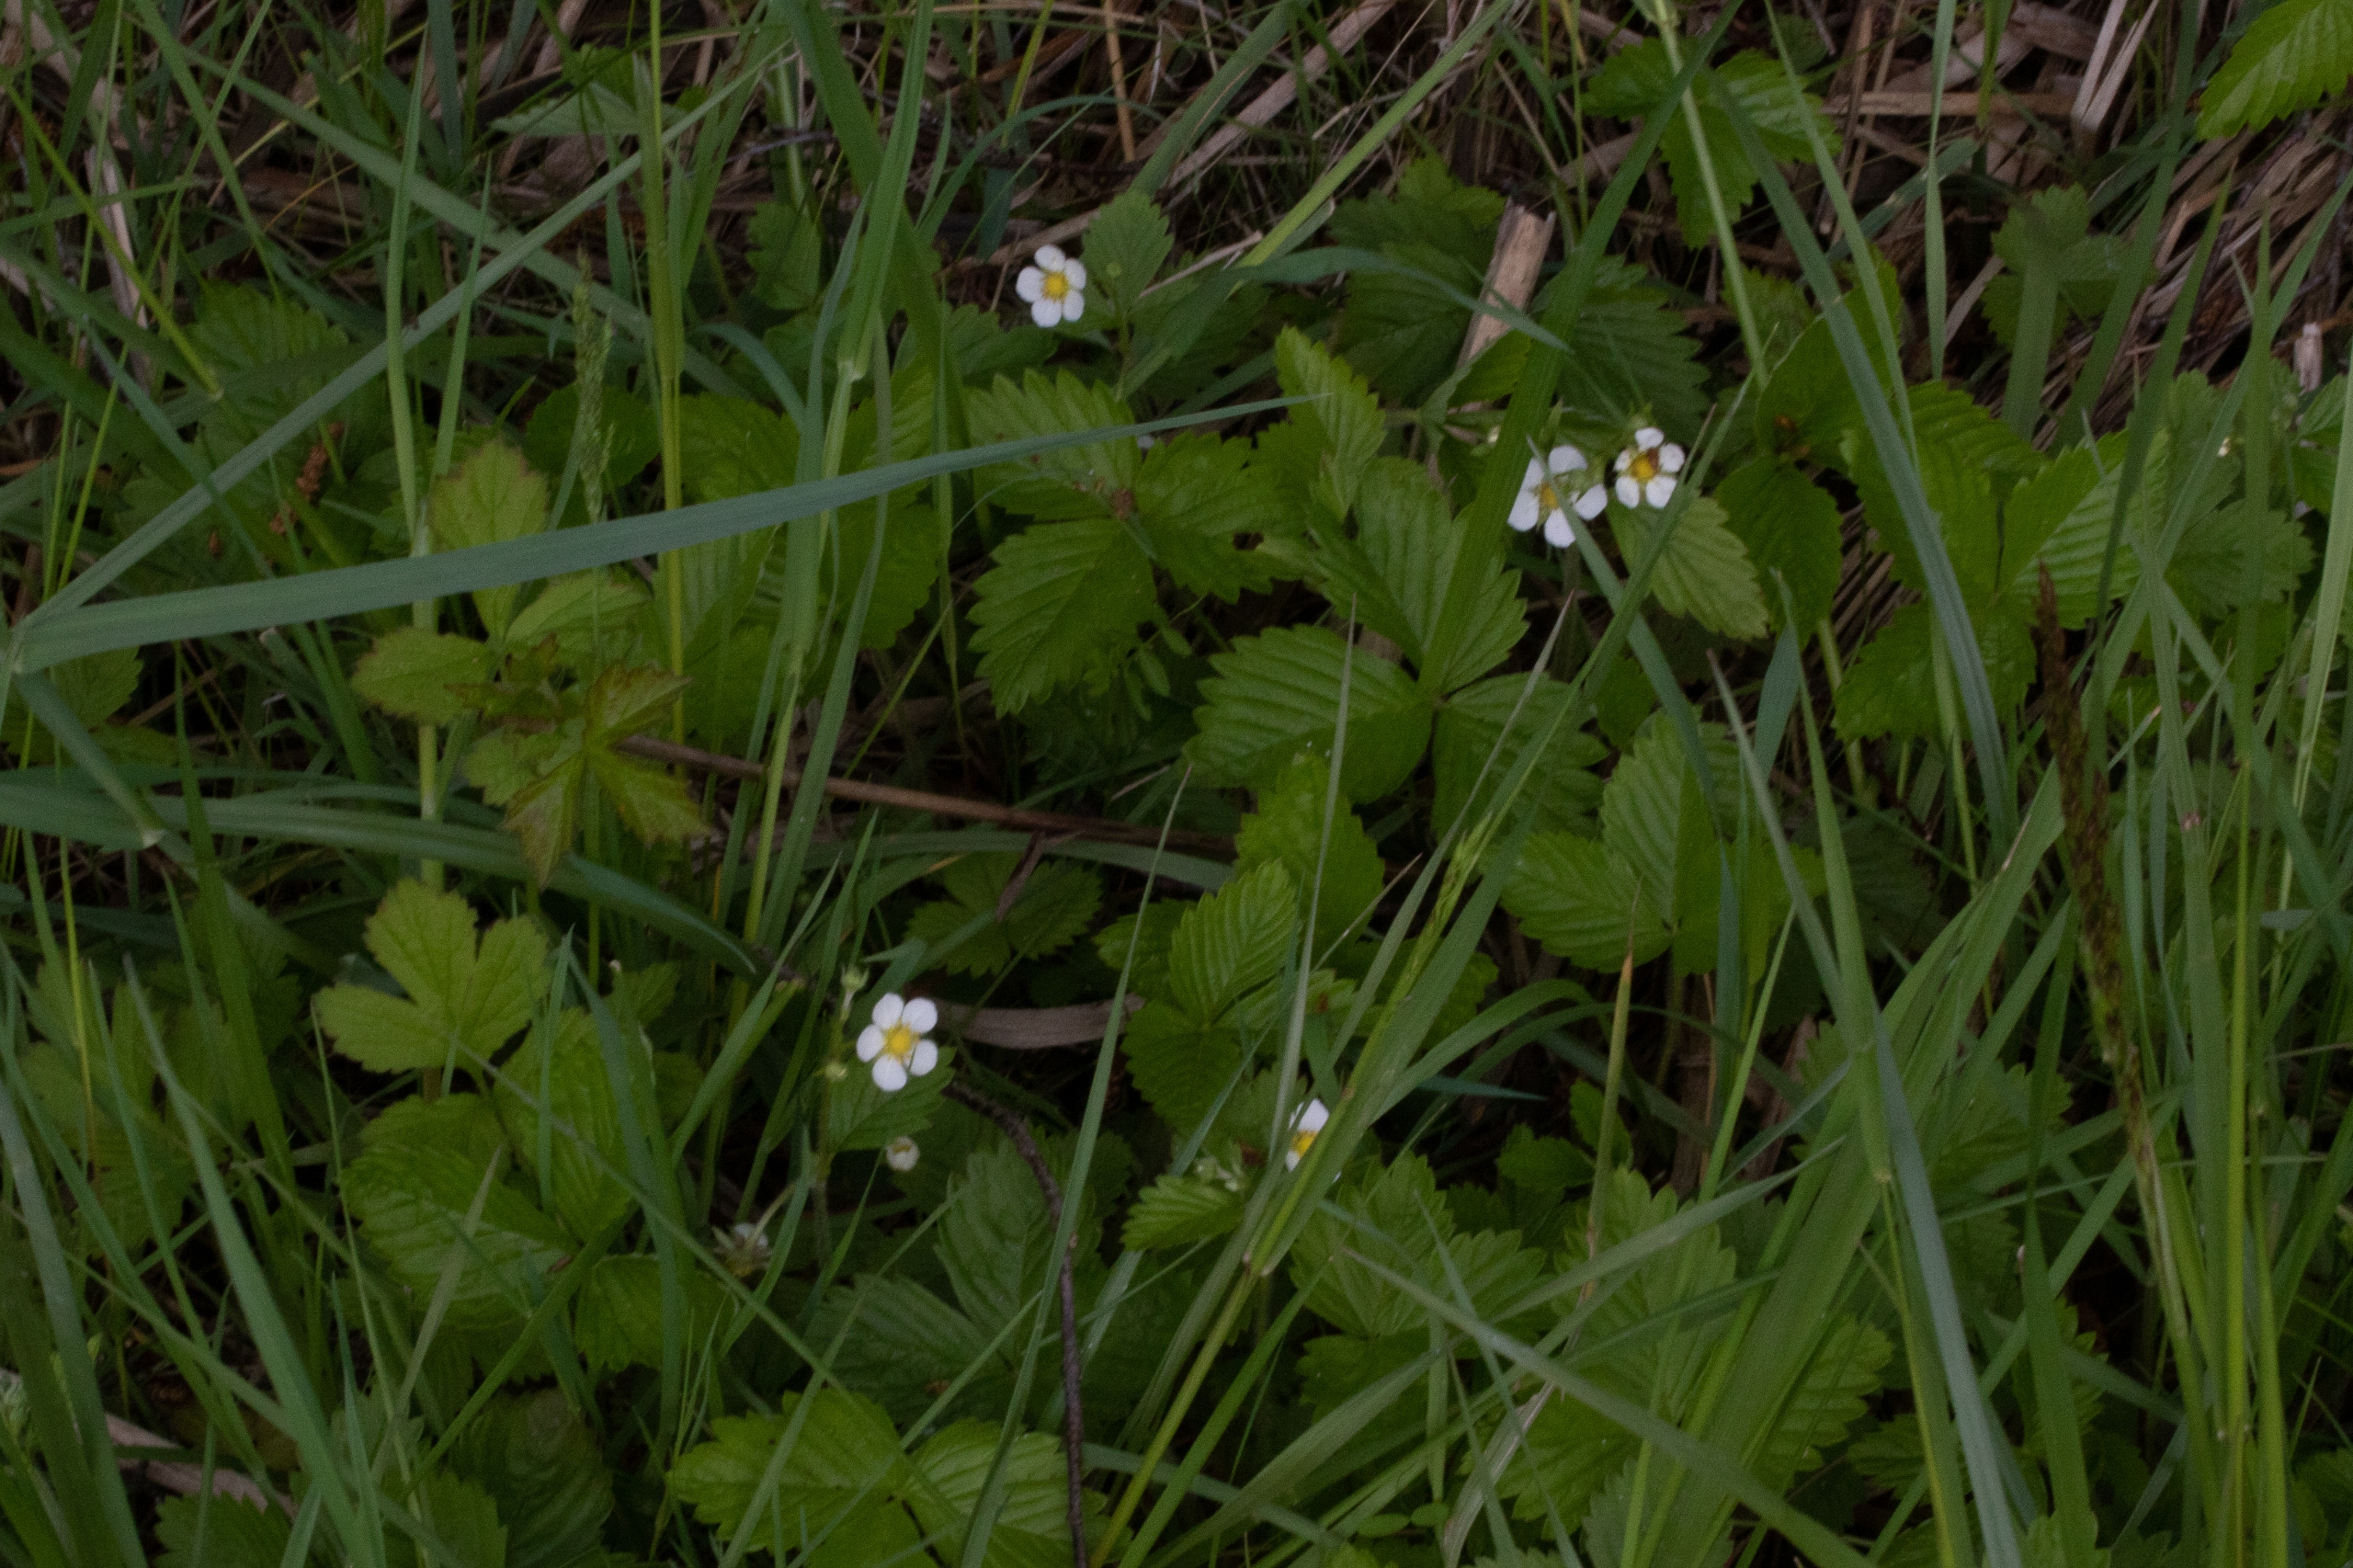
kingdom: Plantae
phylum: Tracheophyta
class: Magnoliopsida
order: Rosales
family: Rosaceae
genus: Fragaria
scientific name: Fragaria vesca
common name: Skov-jordbær
